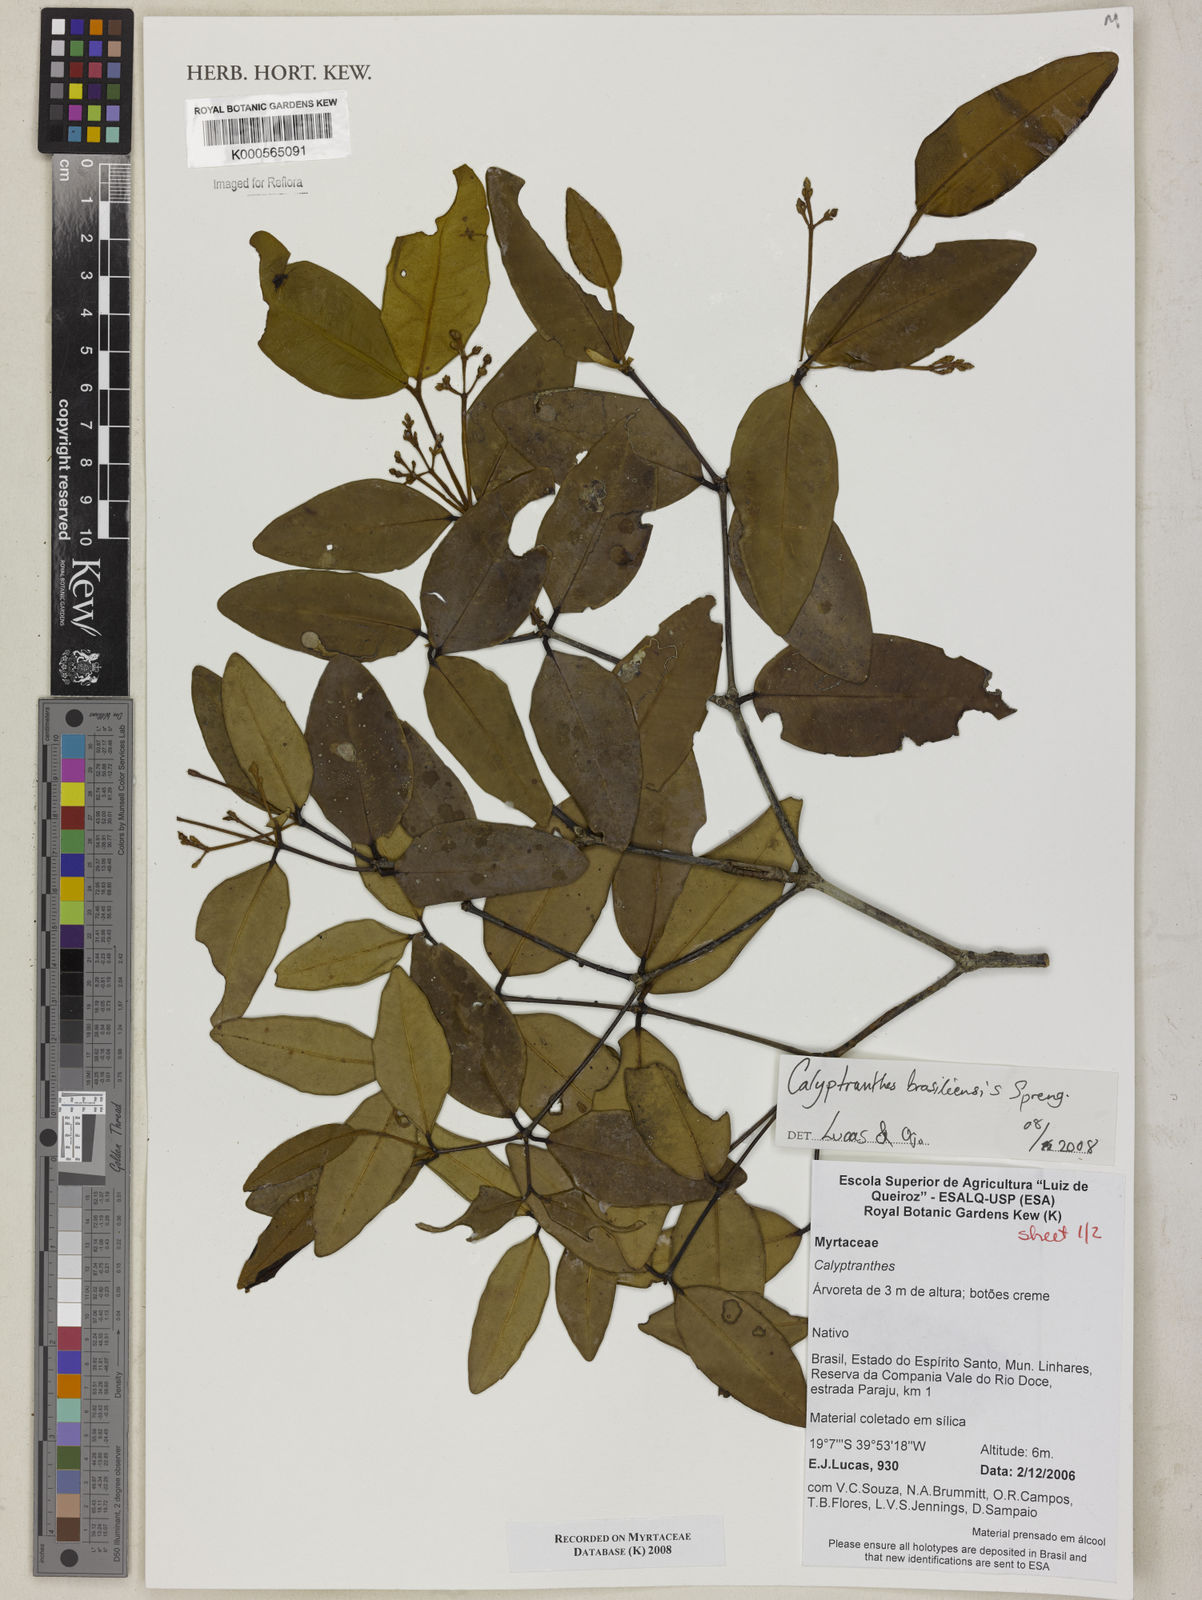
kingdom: Plantae
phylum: Tracheophyta
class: Magnoliopsida
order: Myrtales
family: Myrtaceae
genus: Calyptranthes
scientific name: Calyptranthes
